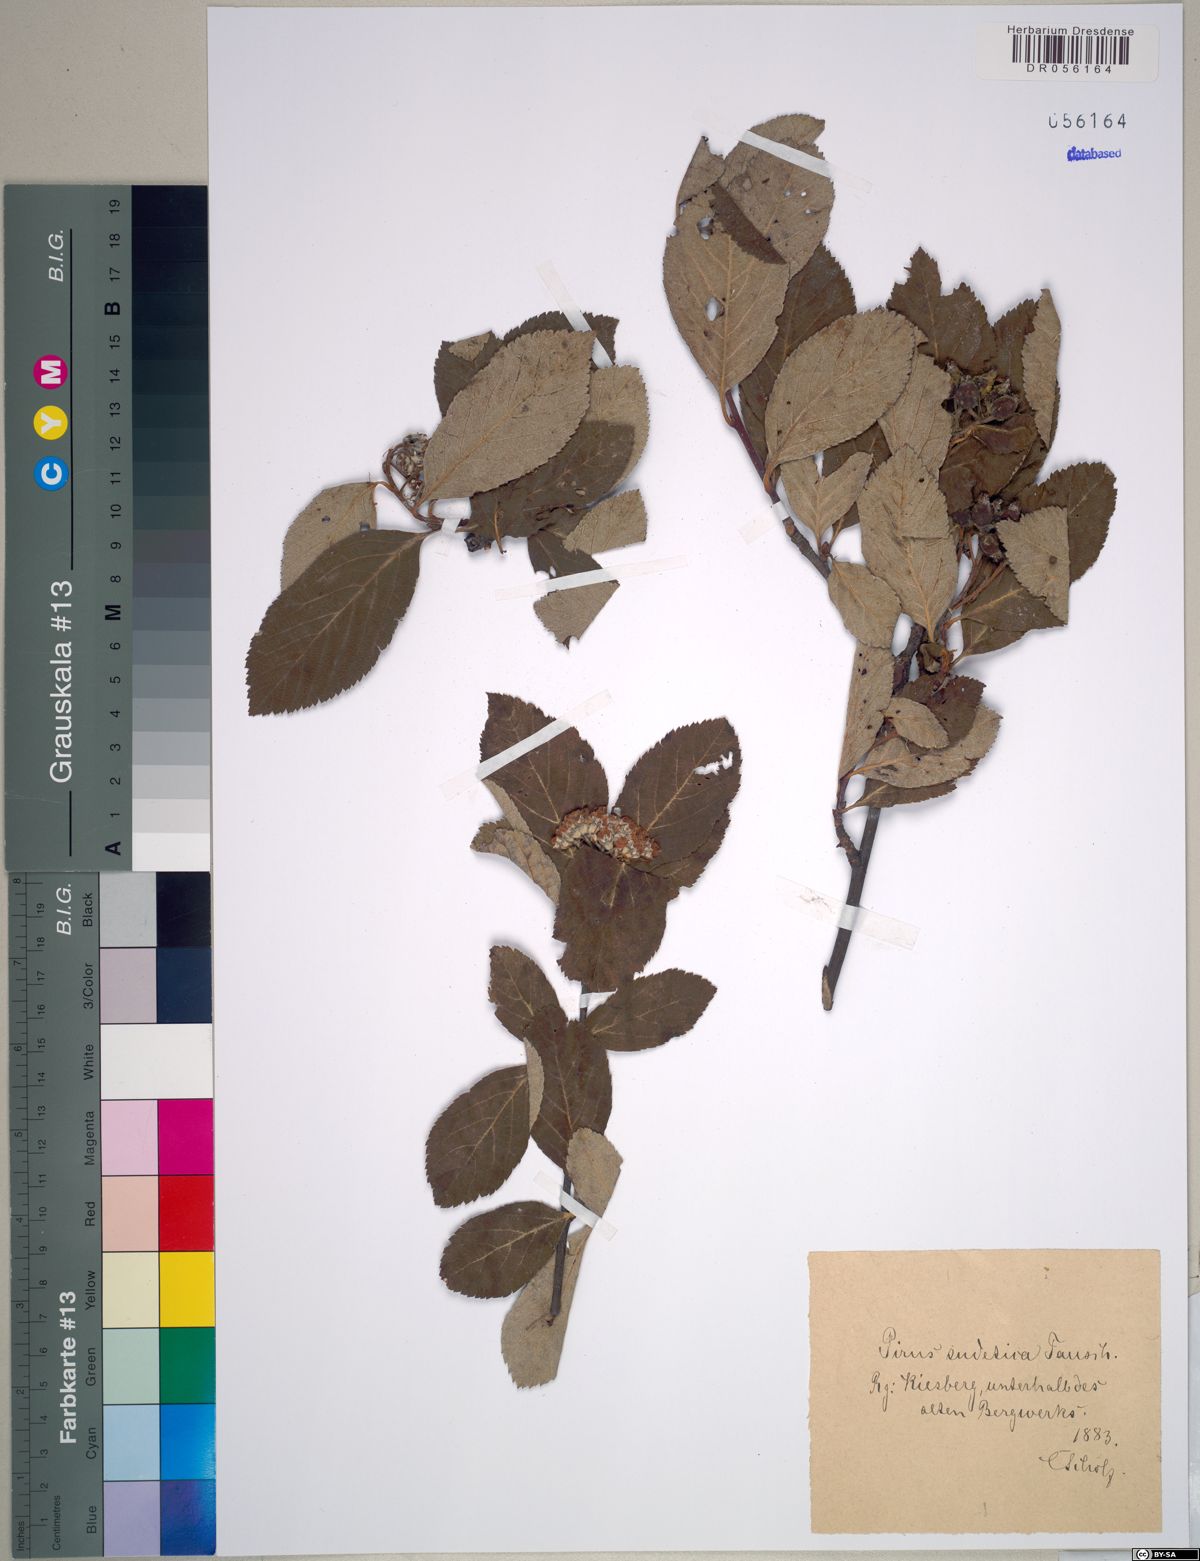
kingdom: Plantae
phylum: Tracheophyta
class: Magnoliopsida
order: Rosales
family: Rosaceae
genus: Majovskya
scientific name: Majovskya sudetica
